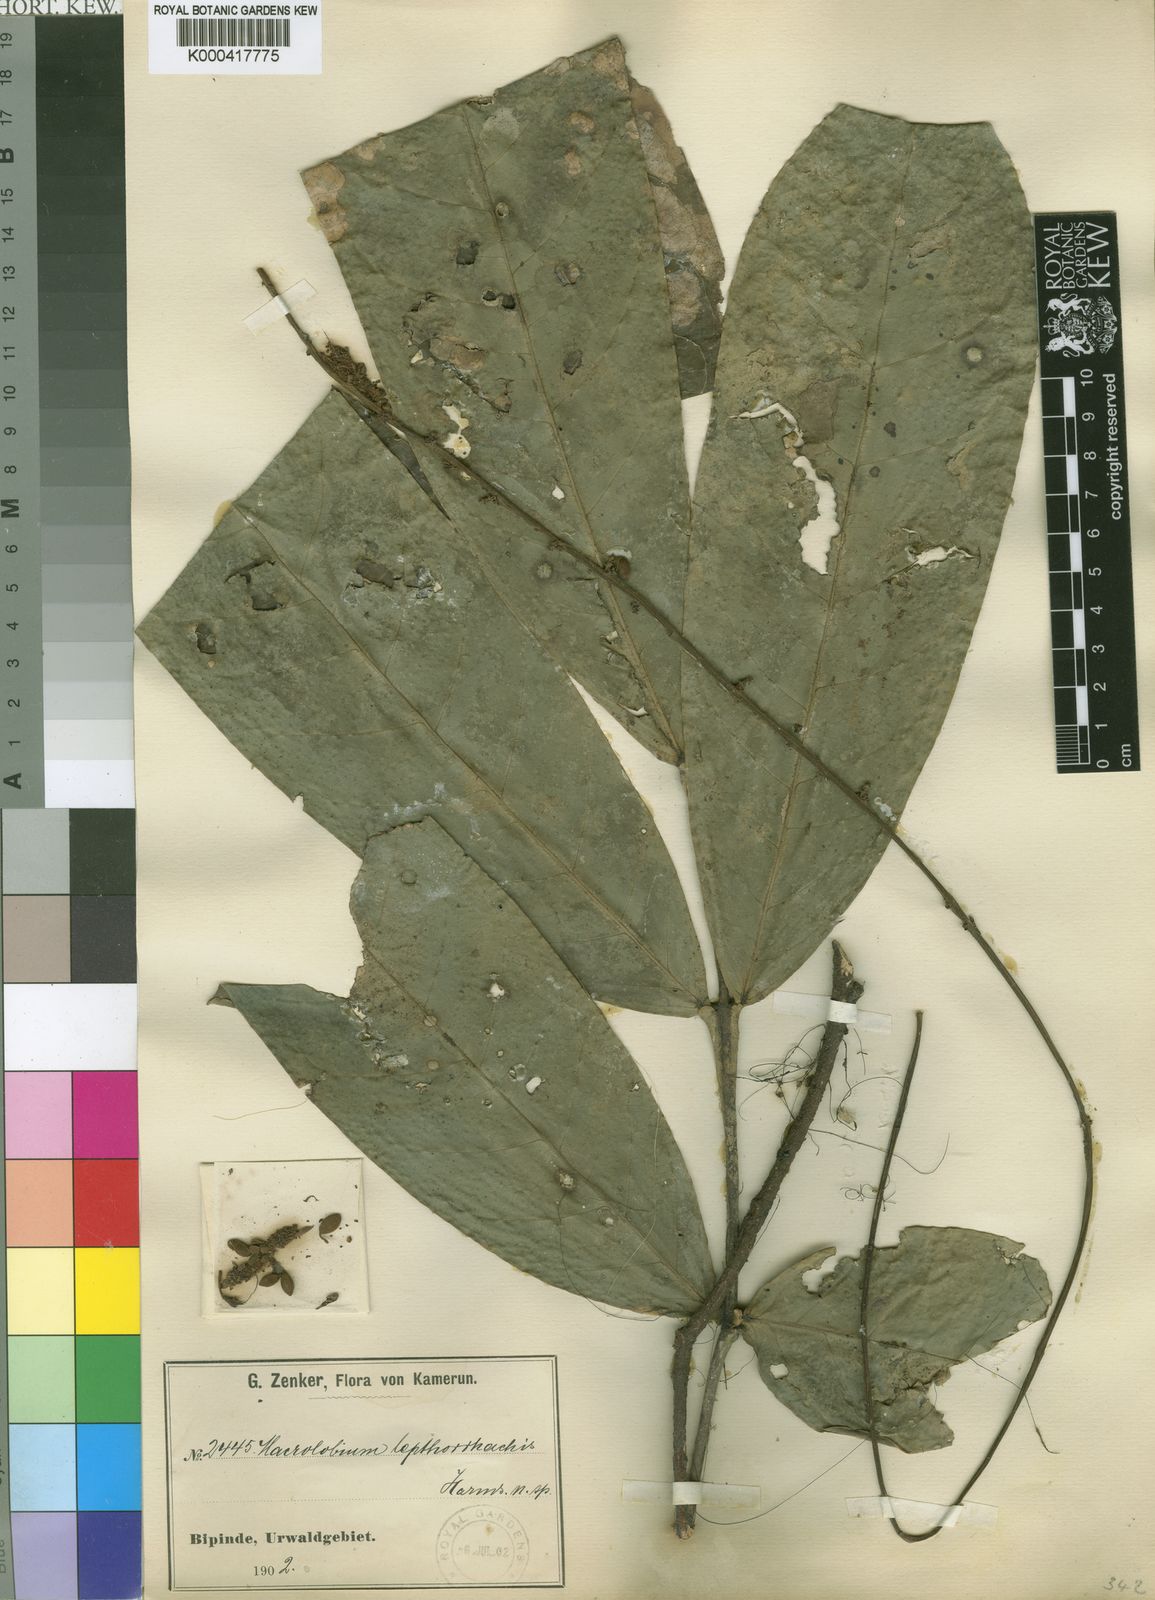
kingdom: Plantae
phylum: Tracheophyta
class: Magnoliopsida
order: Fabales
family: Fabaceae
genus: Englerodendron
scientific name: Englerodendron
